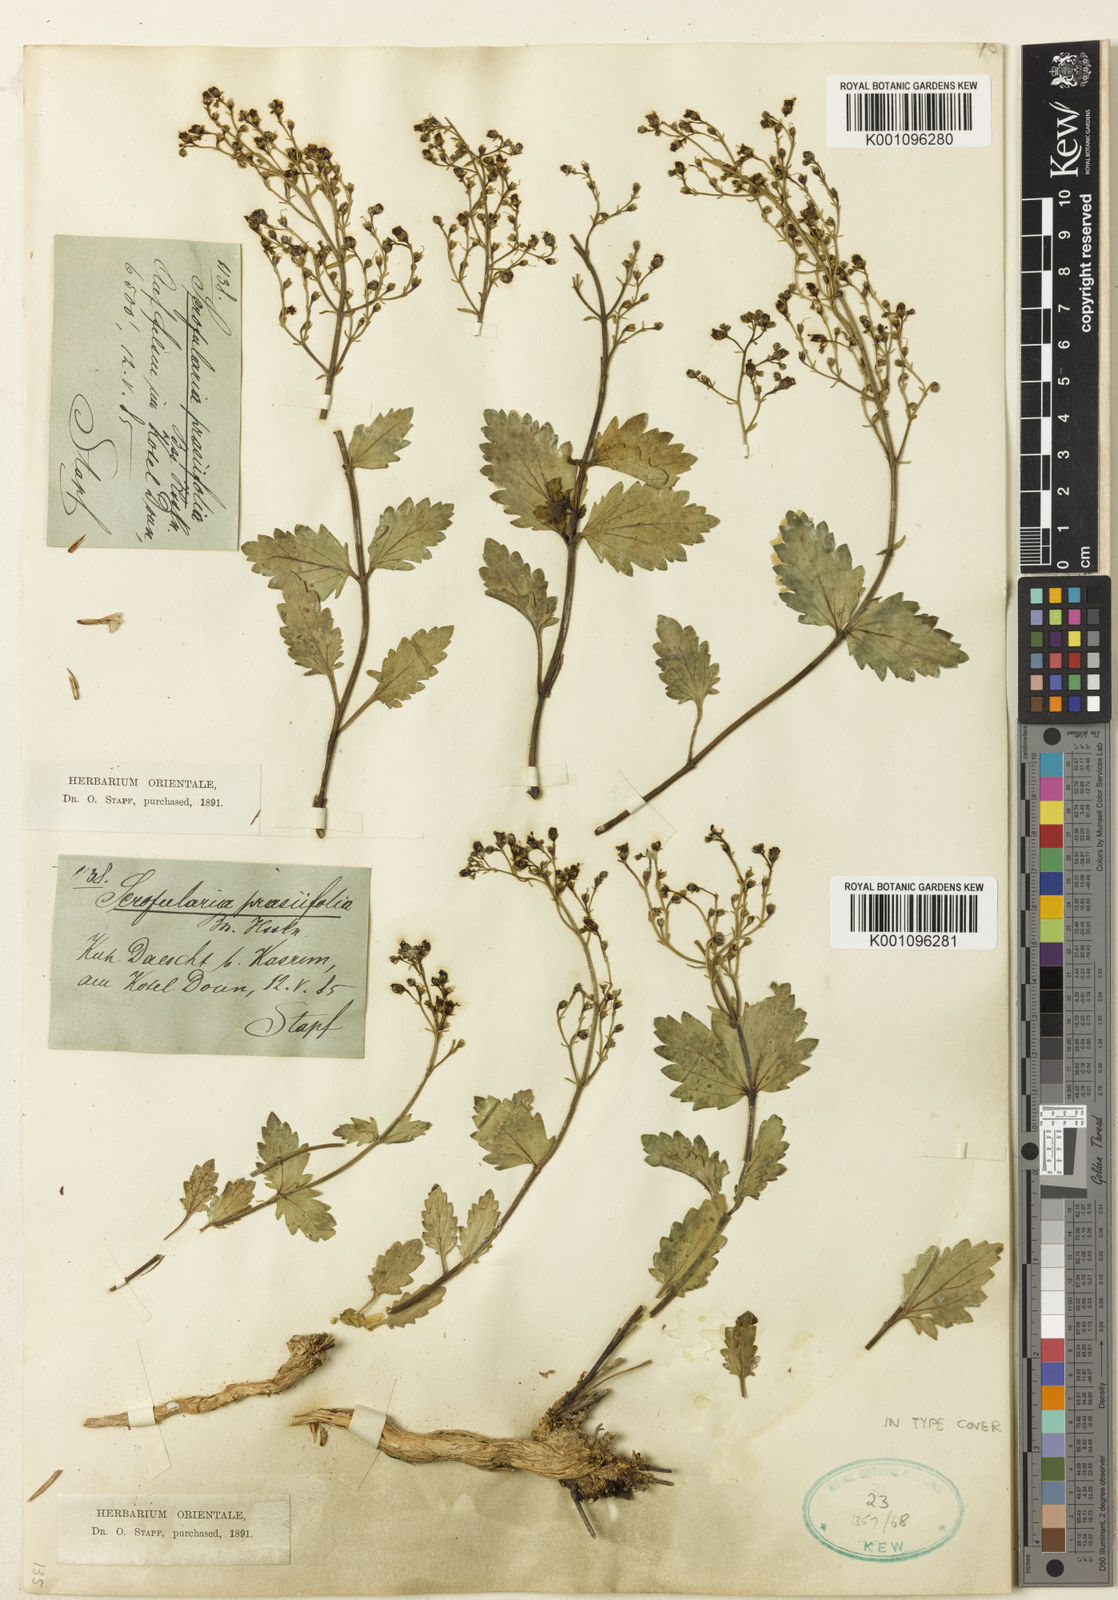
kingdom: Plantae
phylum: Tracheophyta
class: Magnoliopsida
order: Lamiales
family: Scrophulariaceae
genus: Scrophularia
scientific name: Scrophularia prasiifolia
